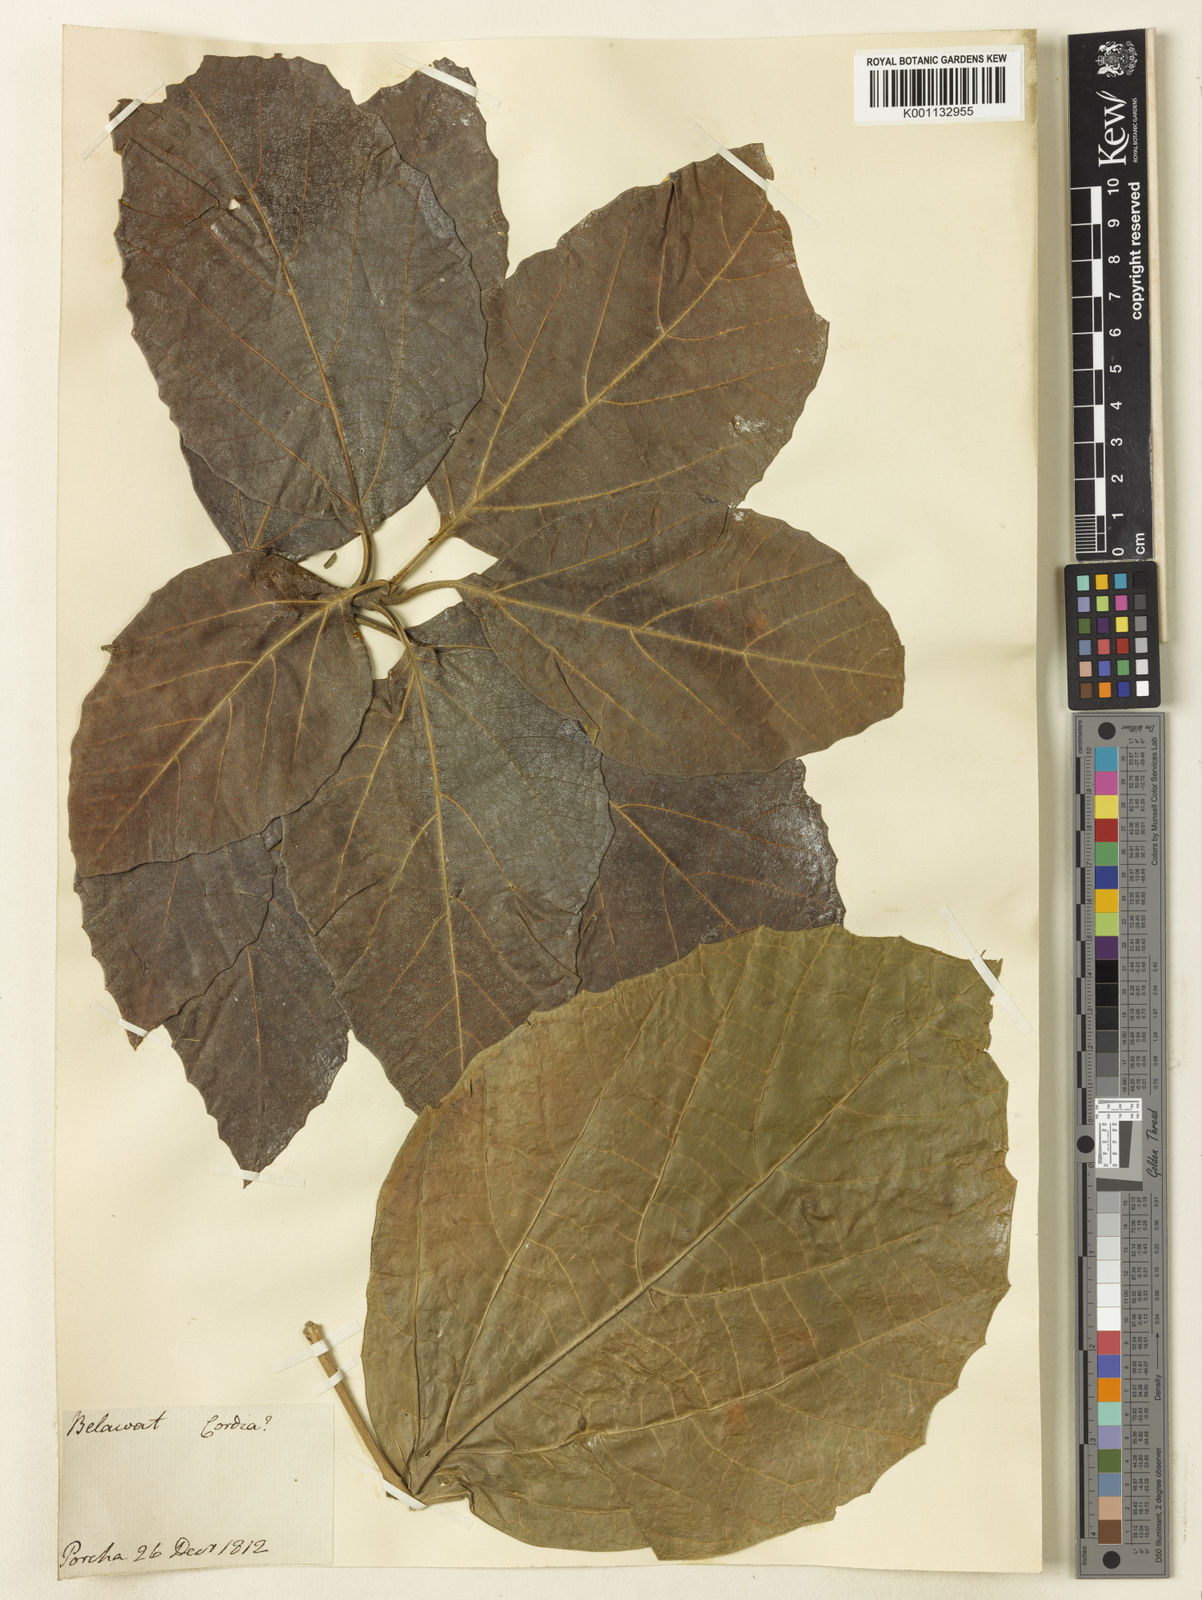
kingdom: Plantae
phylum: Tracheophyta
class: Magnoliopsida
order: Boraginales
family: Cordiaceae
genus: Cordia
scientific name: Cordia
